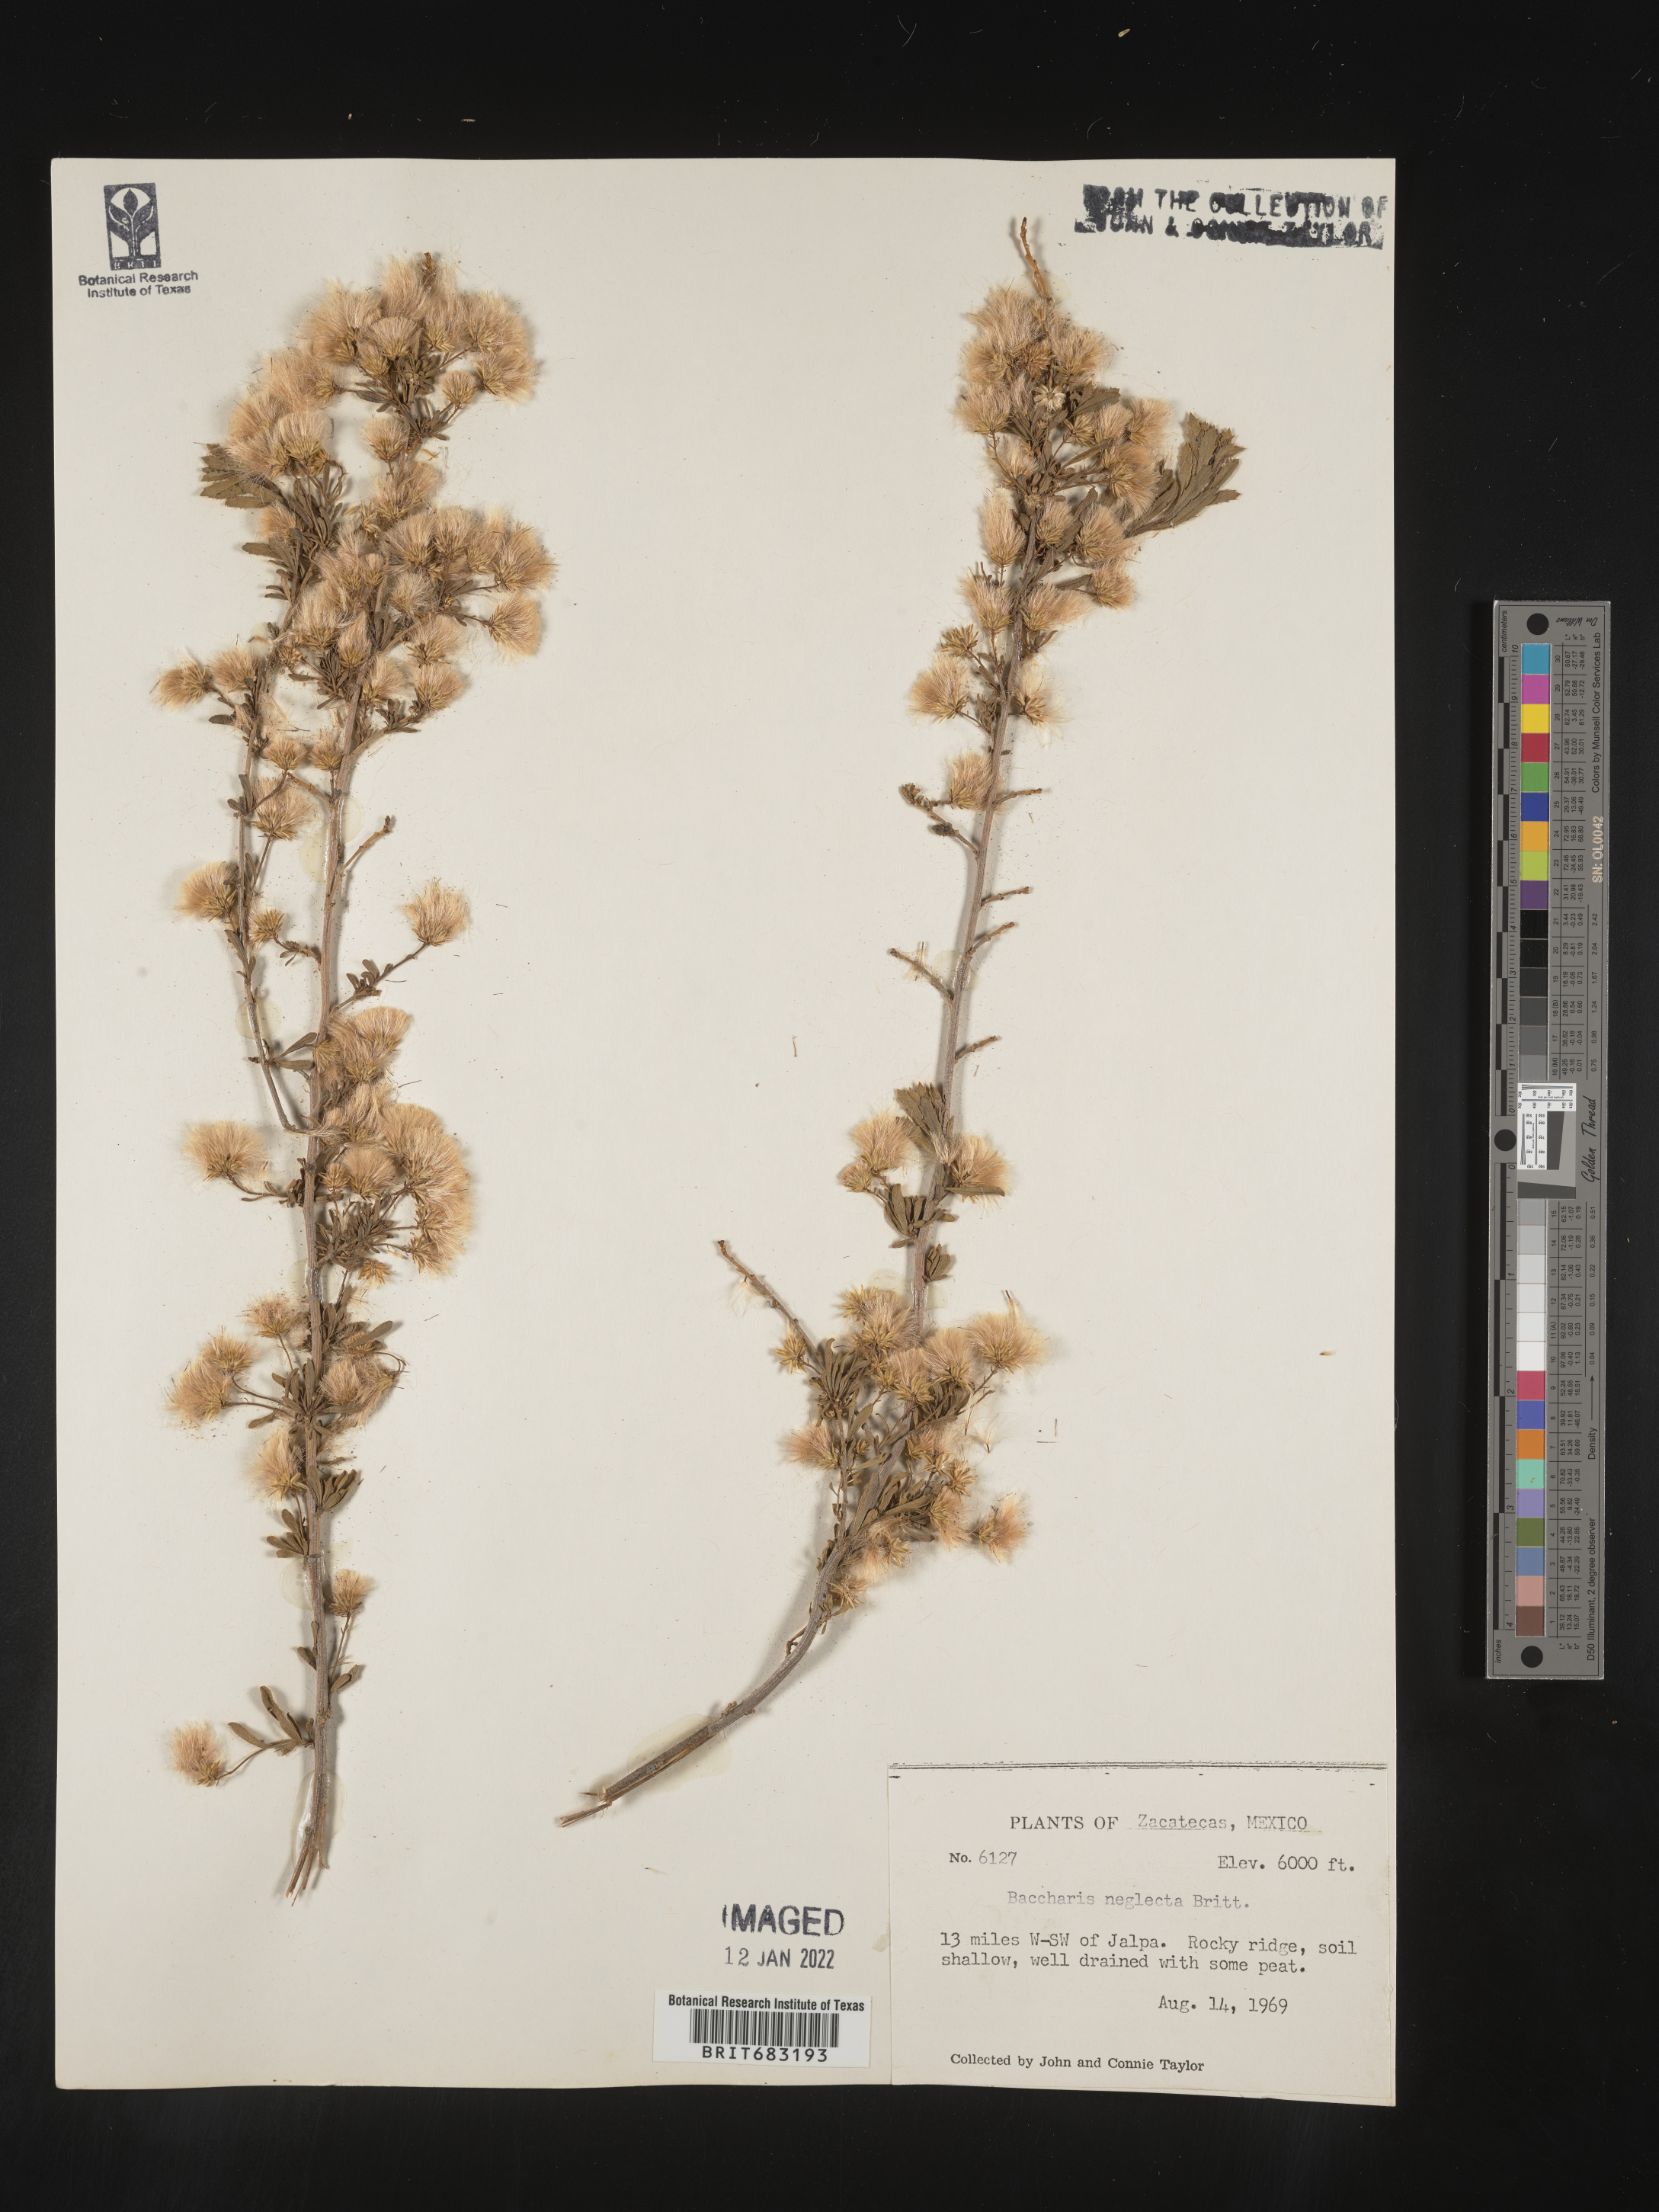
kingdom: Plantae
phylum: Tracheophyta
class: Magnoliopsida
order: Asterales
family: Asteraceae
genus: Baccharis
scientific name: Baccharis
